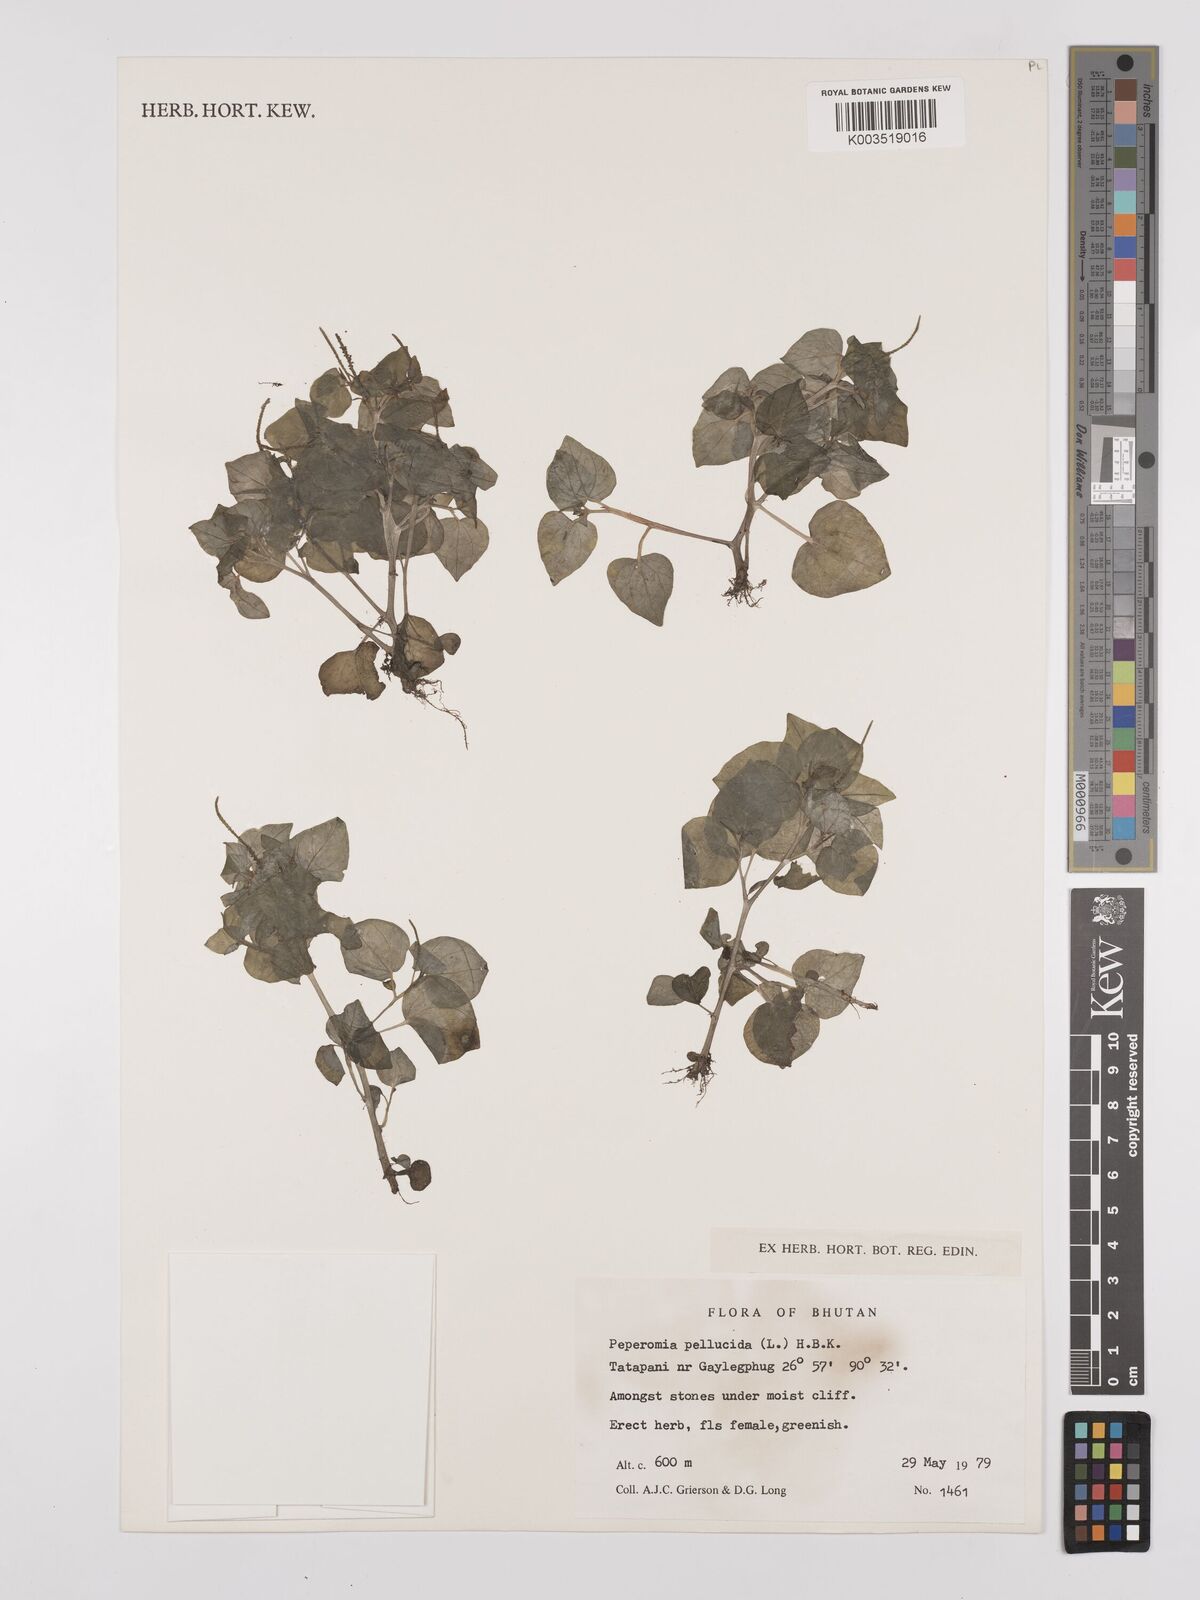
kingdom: Plantae
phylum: Tracheophyta
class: Magnoliopsida
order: Piperales
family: Piperaceae
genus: Peperomia
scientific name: Peperomia pellucida
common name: Man to man
